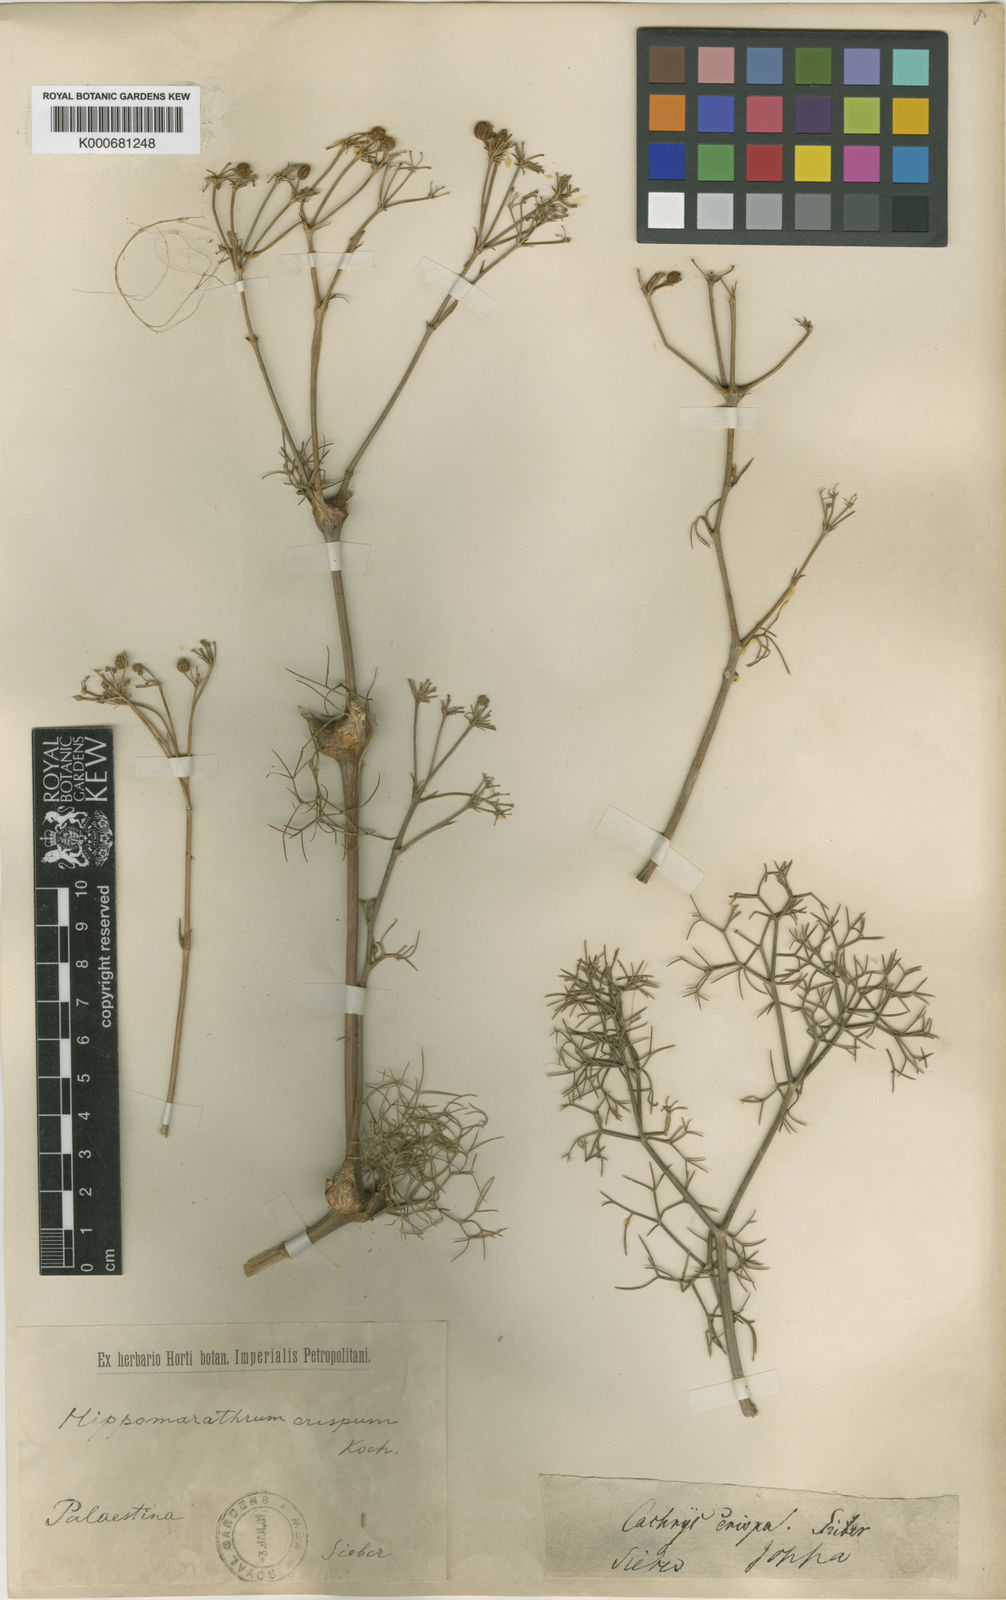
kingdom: Plantae
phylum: Tracheophyta
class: Magnoliopsida
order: Apiales
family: Apiaceae
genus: Bilacunaria
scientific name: Bilacunaria microcarpa
